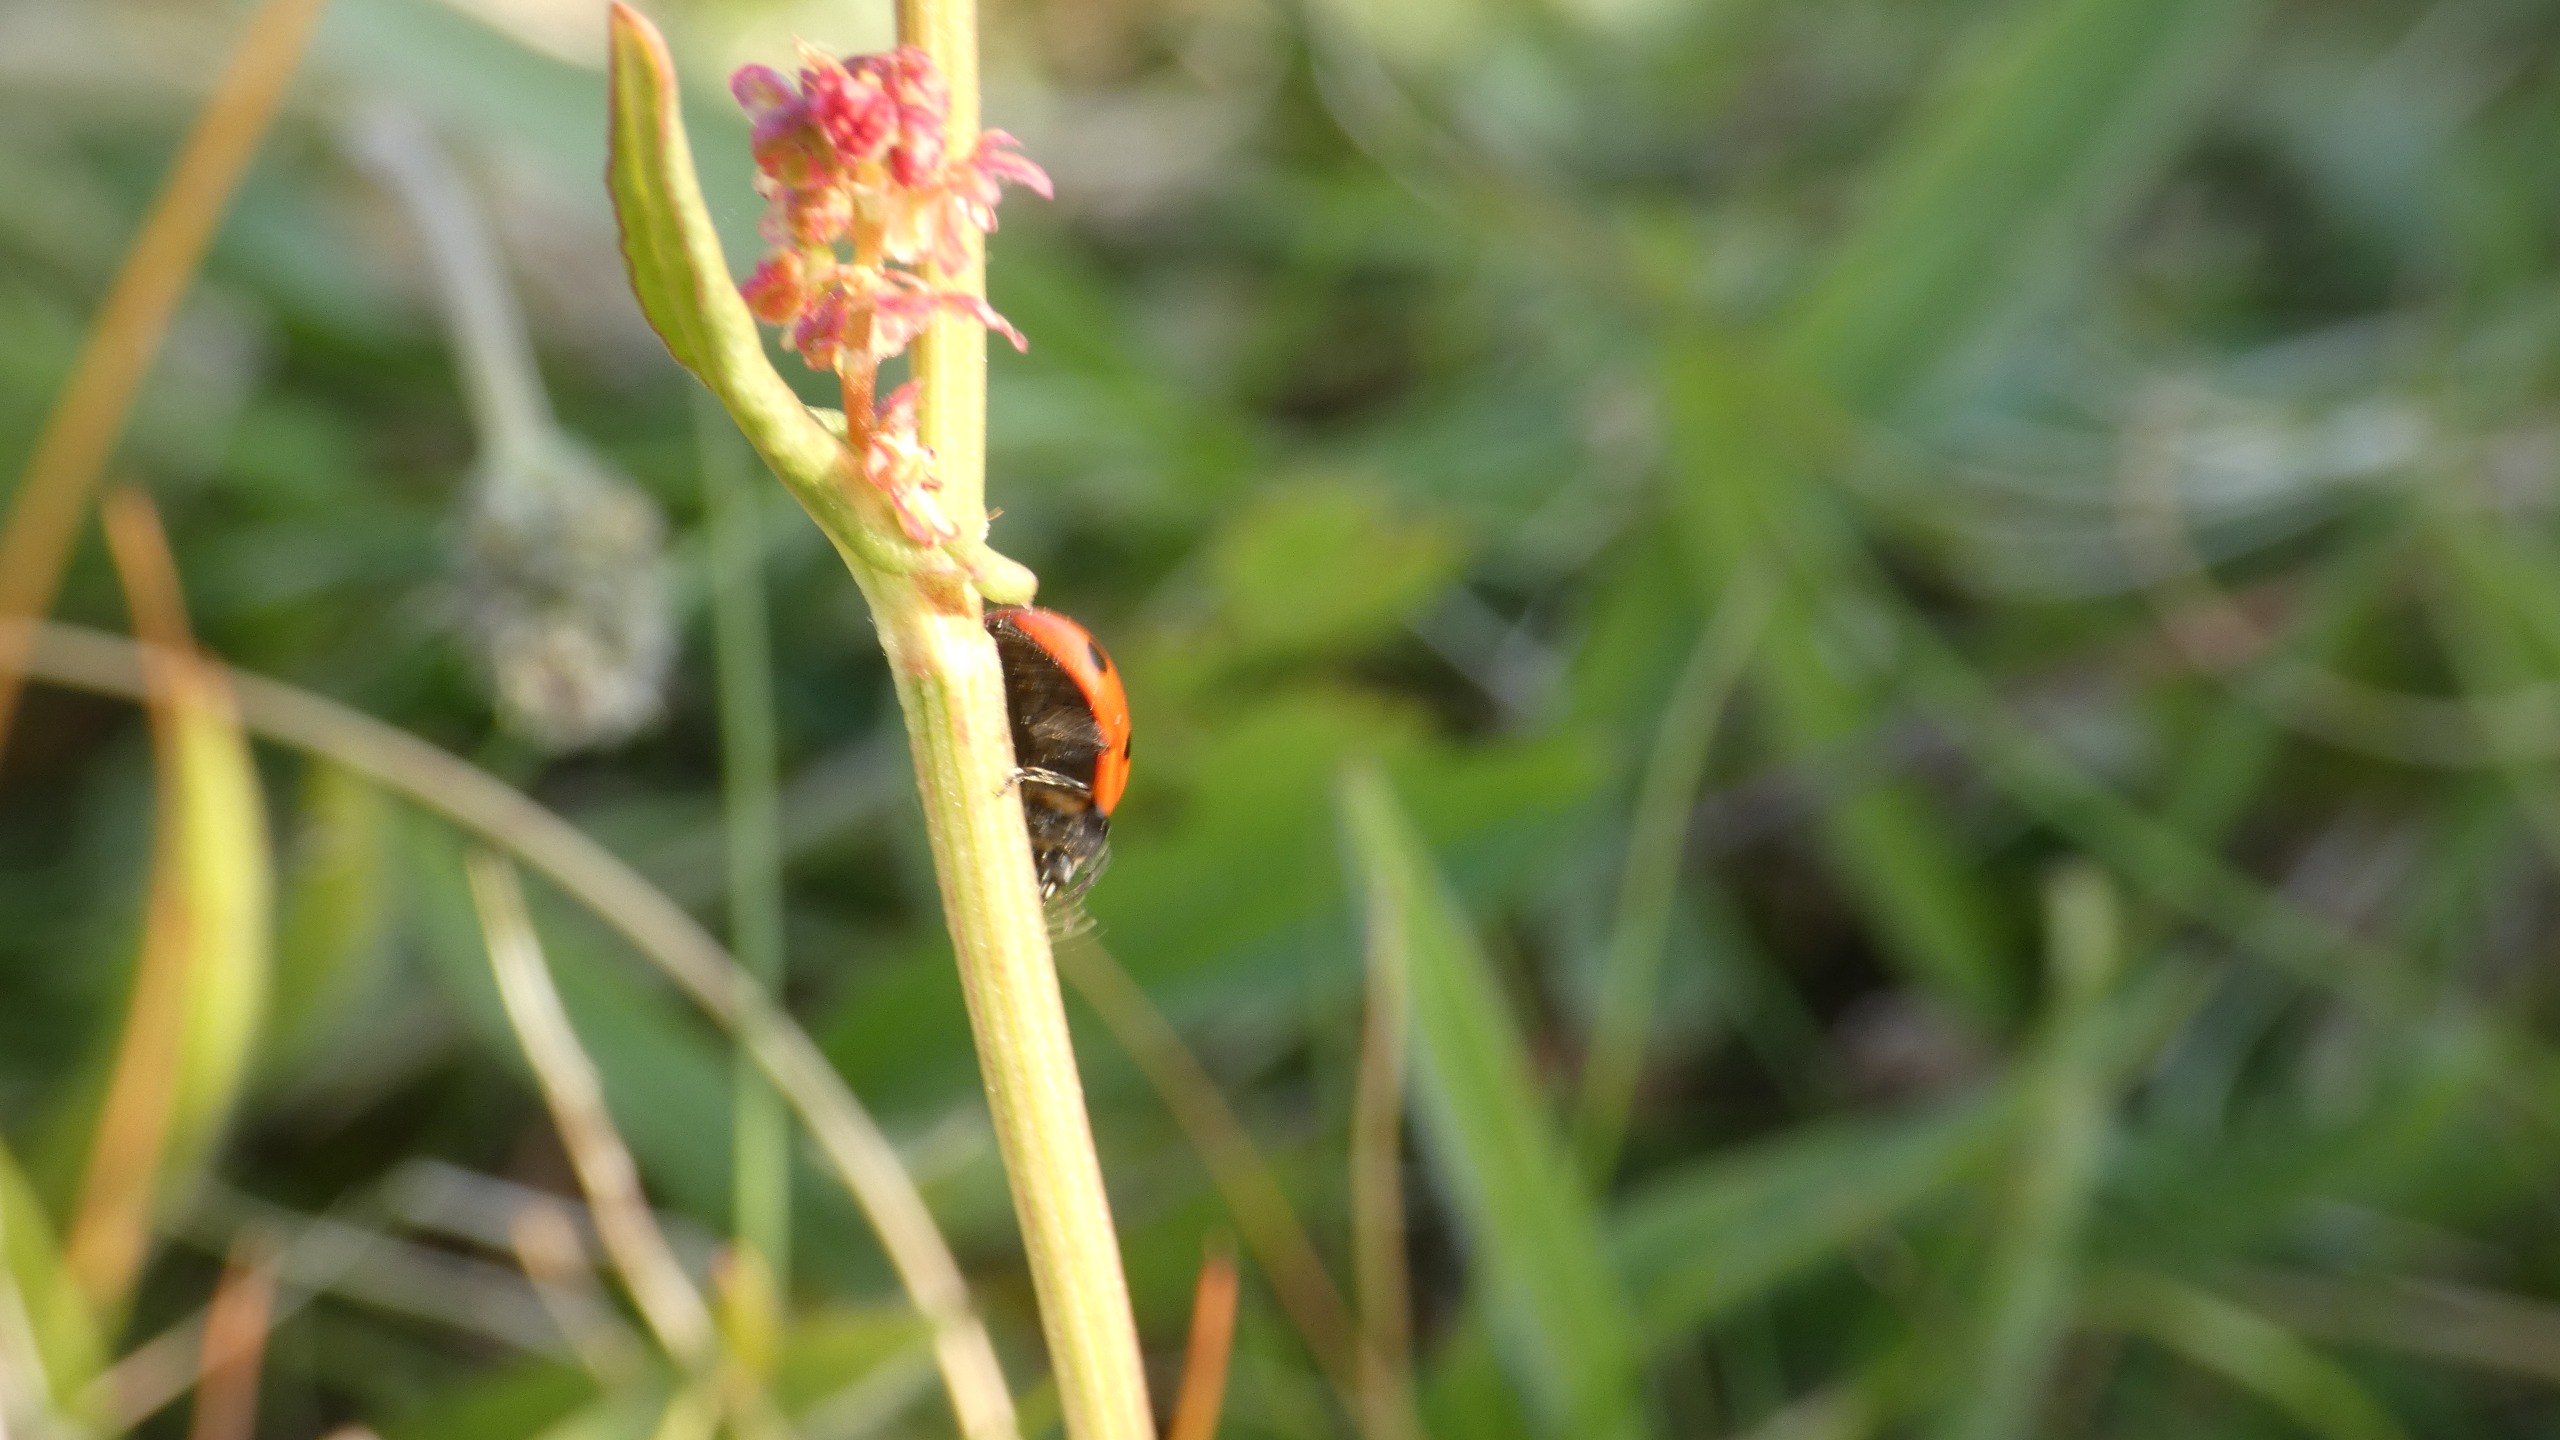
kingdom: Animalia
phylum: Arthropoda
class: Insecta
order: Coleoptera
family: Coccinellidae
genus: Coccinella
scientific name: Coccinella septempunctata
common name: Syvplettet mariehøne
